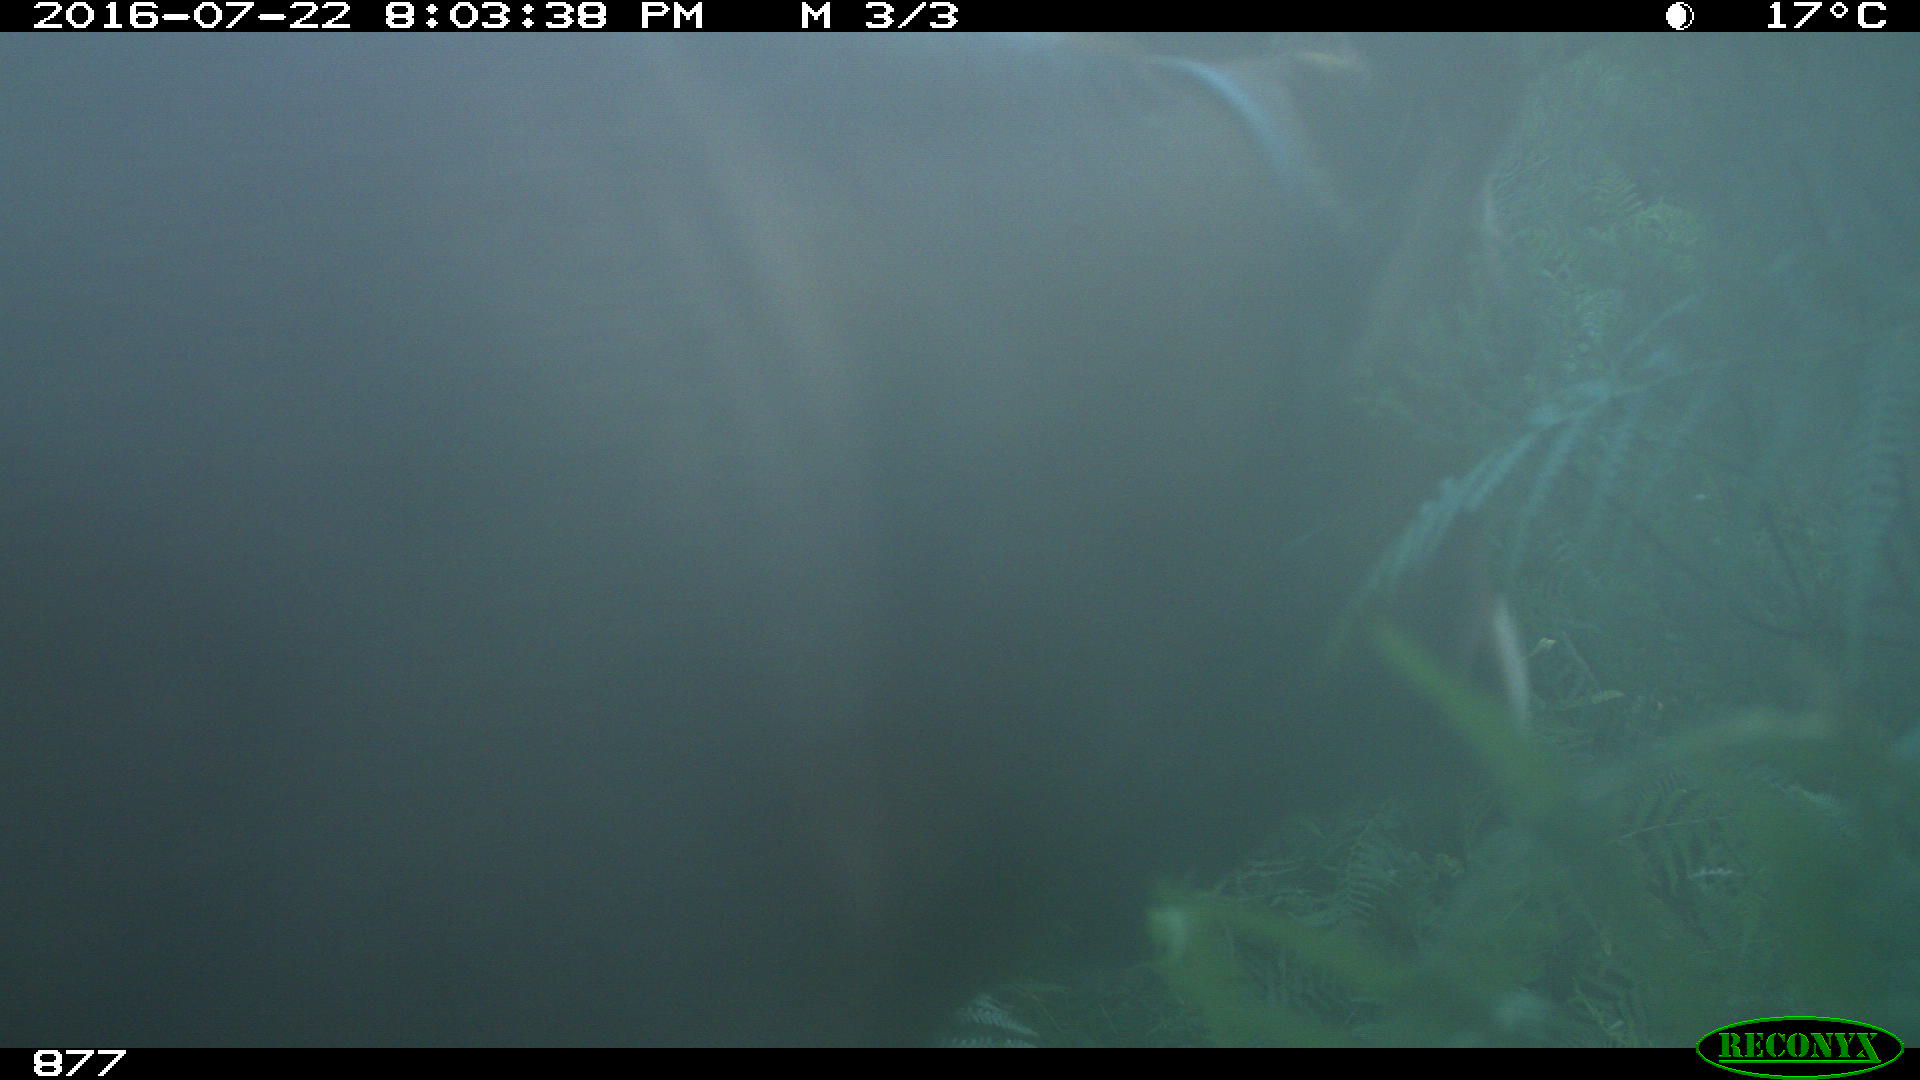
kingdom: Animalia
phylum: Chordata
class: Mammalia
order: Artiodactyla
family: Bovidae
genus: Bos
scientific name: Bos taurus
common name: Domesticated cattle
